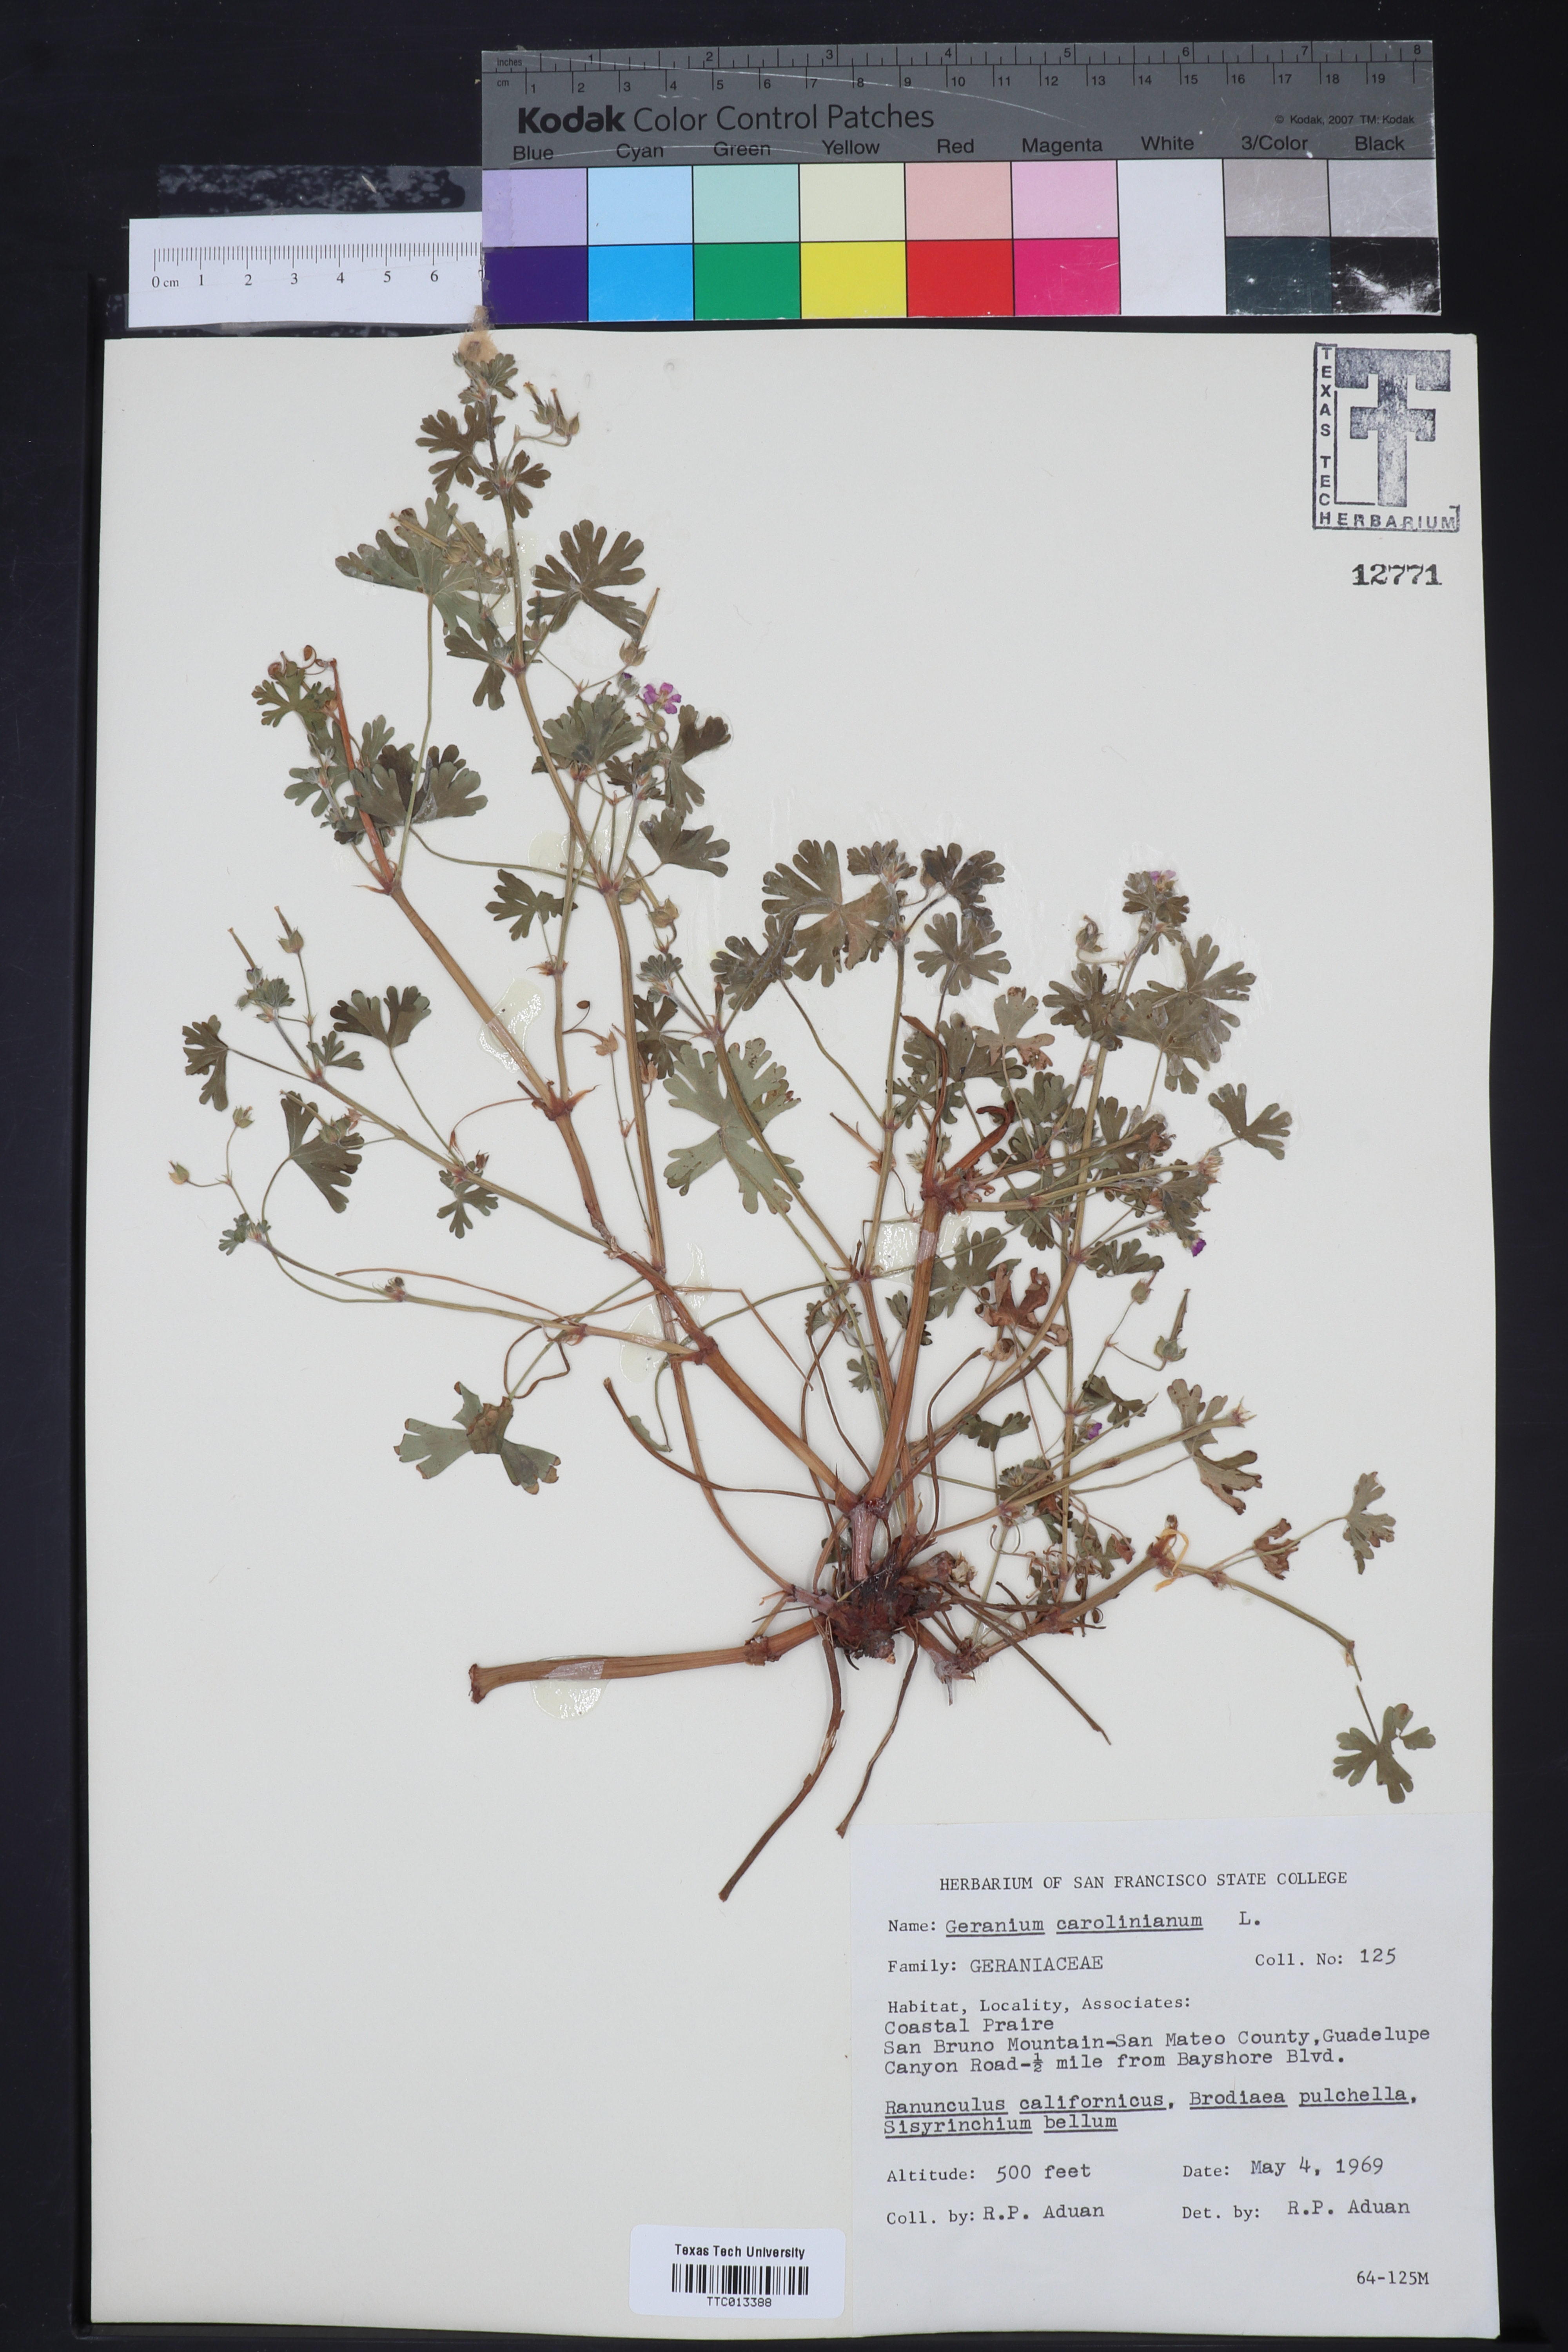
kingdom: Plantae
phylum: Tracheophyta
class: Magnoliopsida
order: Geraniales
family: Geraniaceae
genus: Geranium
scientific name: Geranium carolinianum
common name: Carolina crane's-bill
